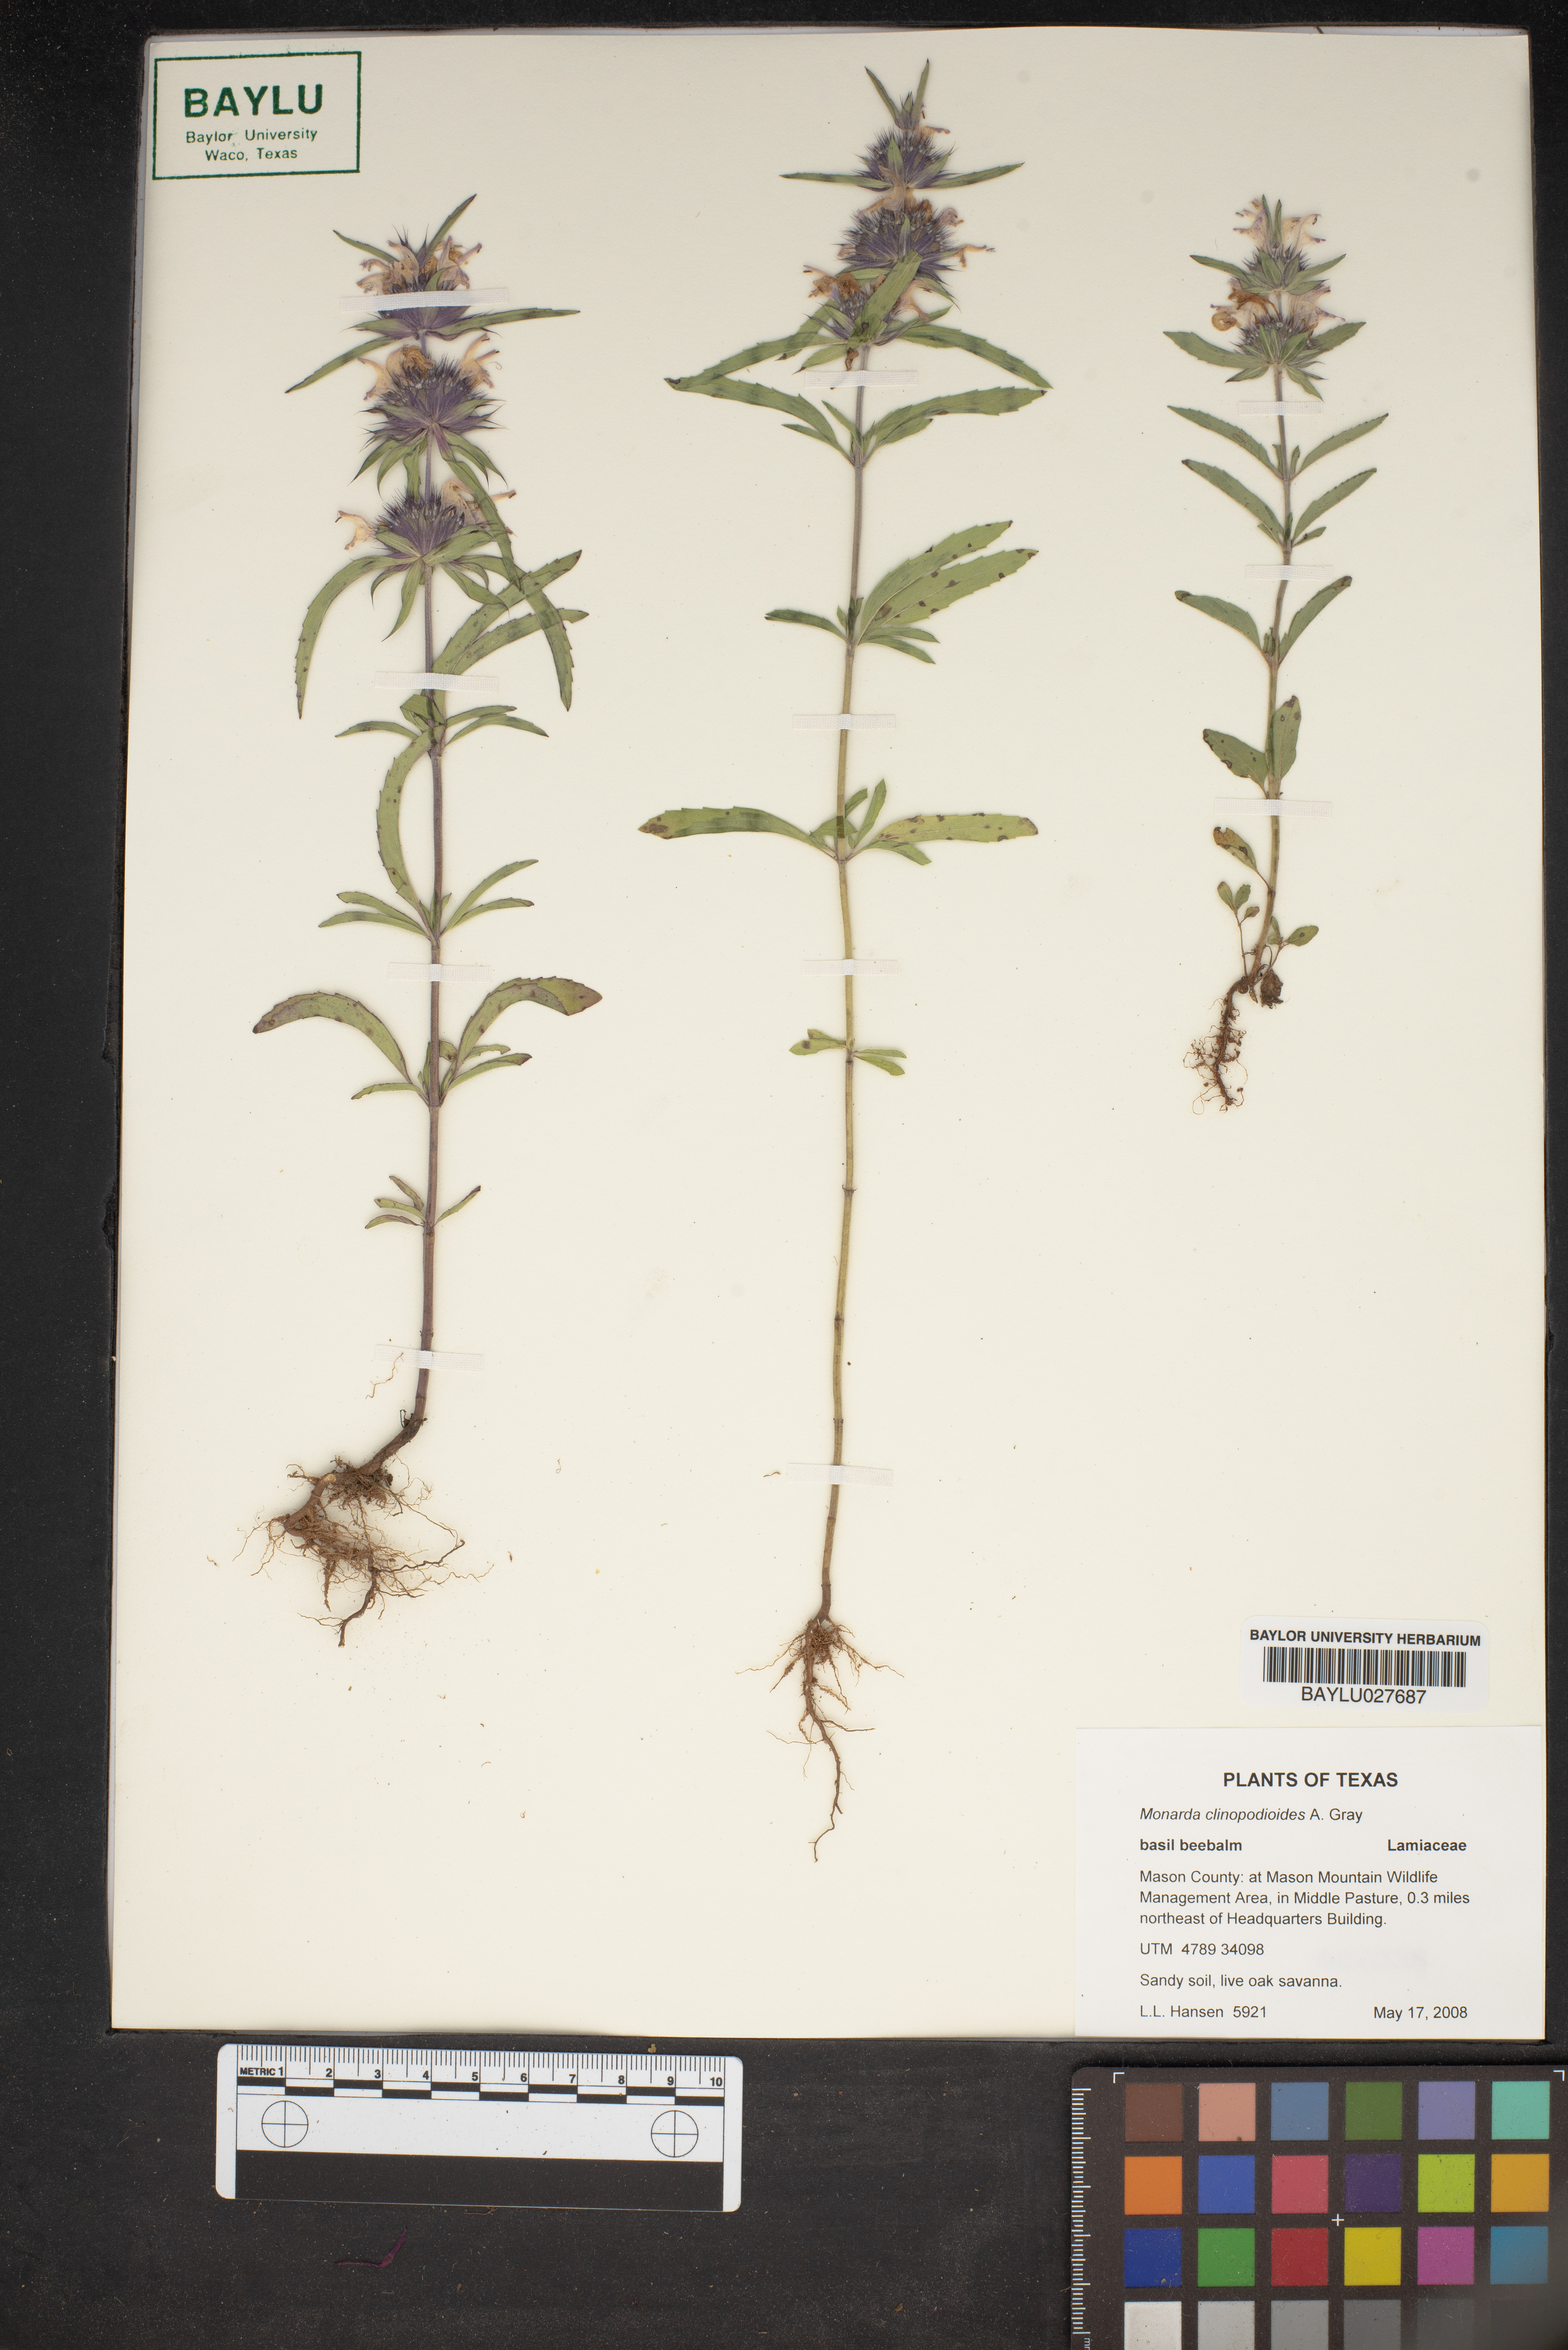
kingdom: Plantae
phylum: Tracheophyta
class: Magnoliopsida
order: Lamiales
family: Lamiaceae
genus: Monarda
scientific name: Monarda clinopodioides
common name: Basil beebalm
